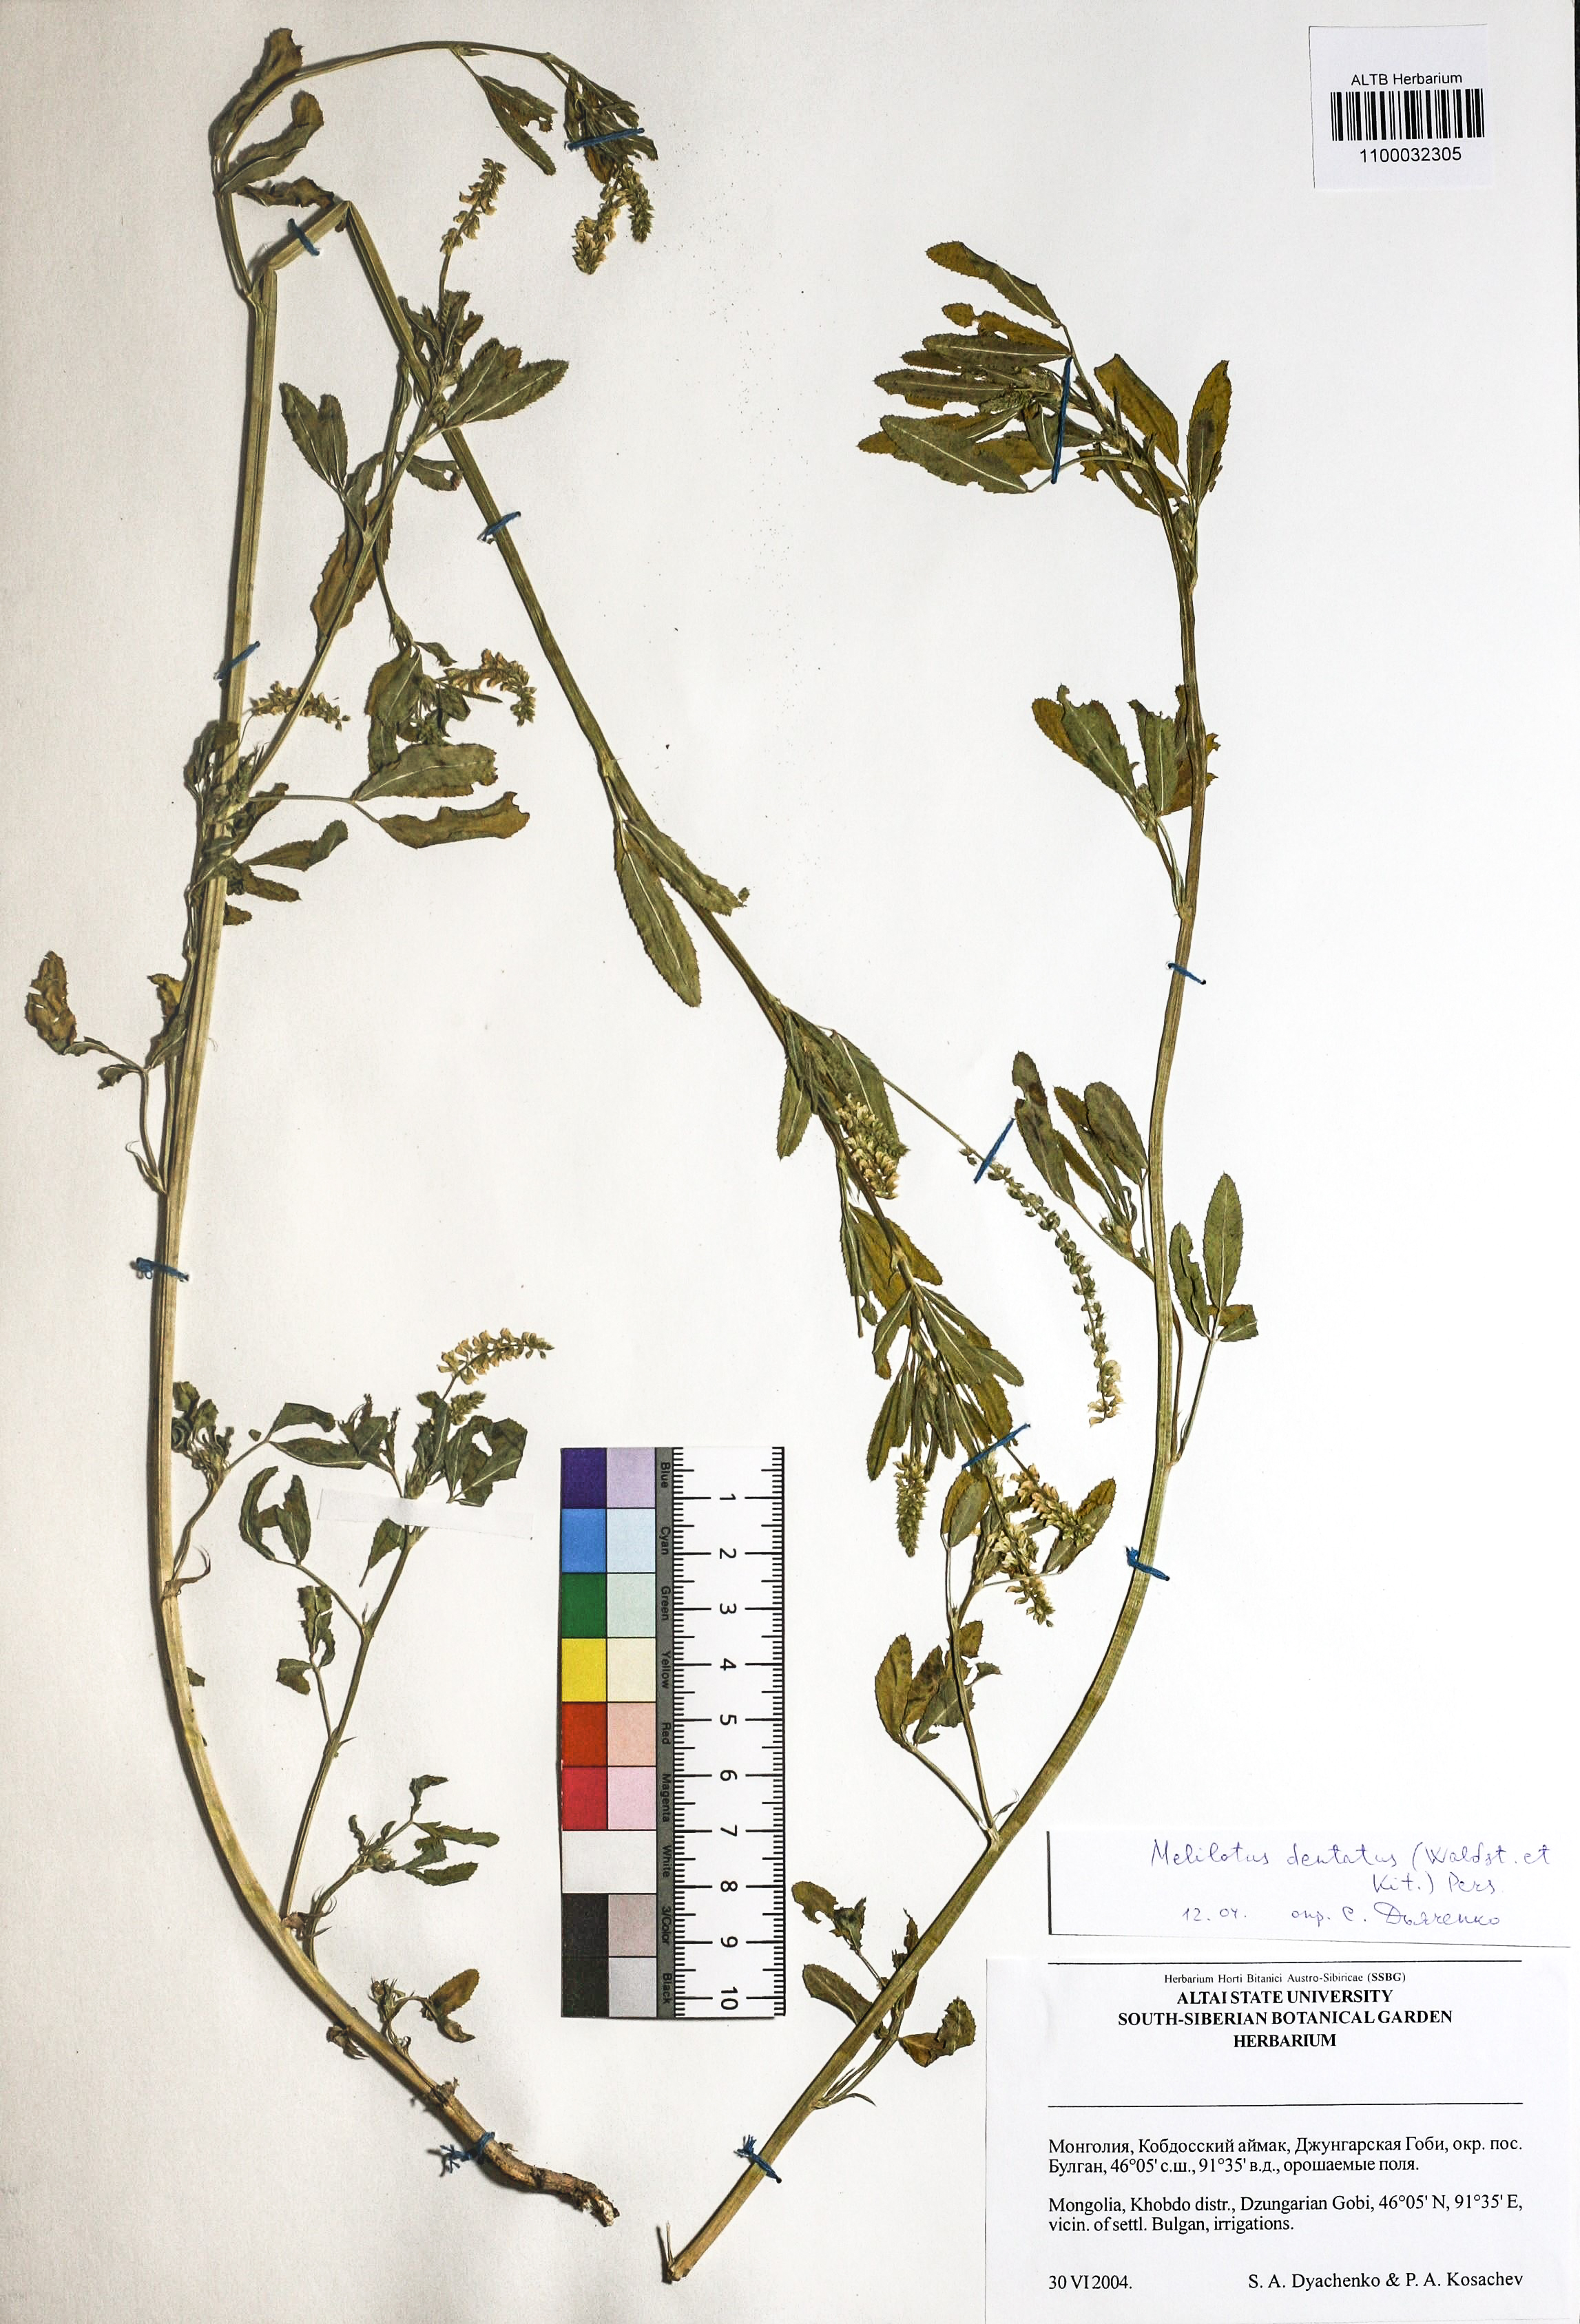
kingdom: Plantae
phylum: Tracheophyta
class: Magnoliopsida
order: Fabales
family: Fabaceae
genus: Melilotus
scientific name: Melilotus dentatus
